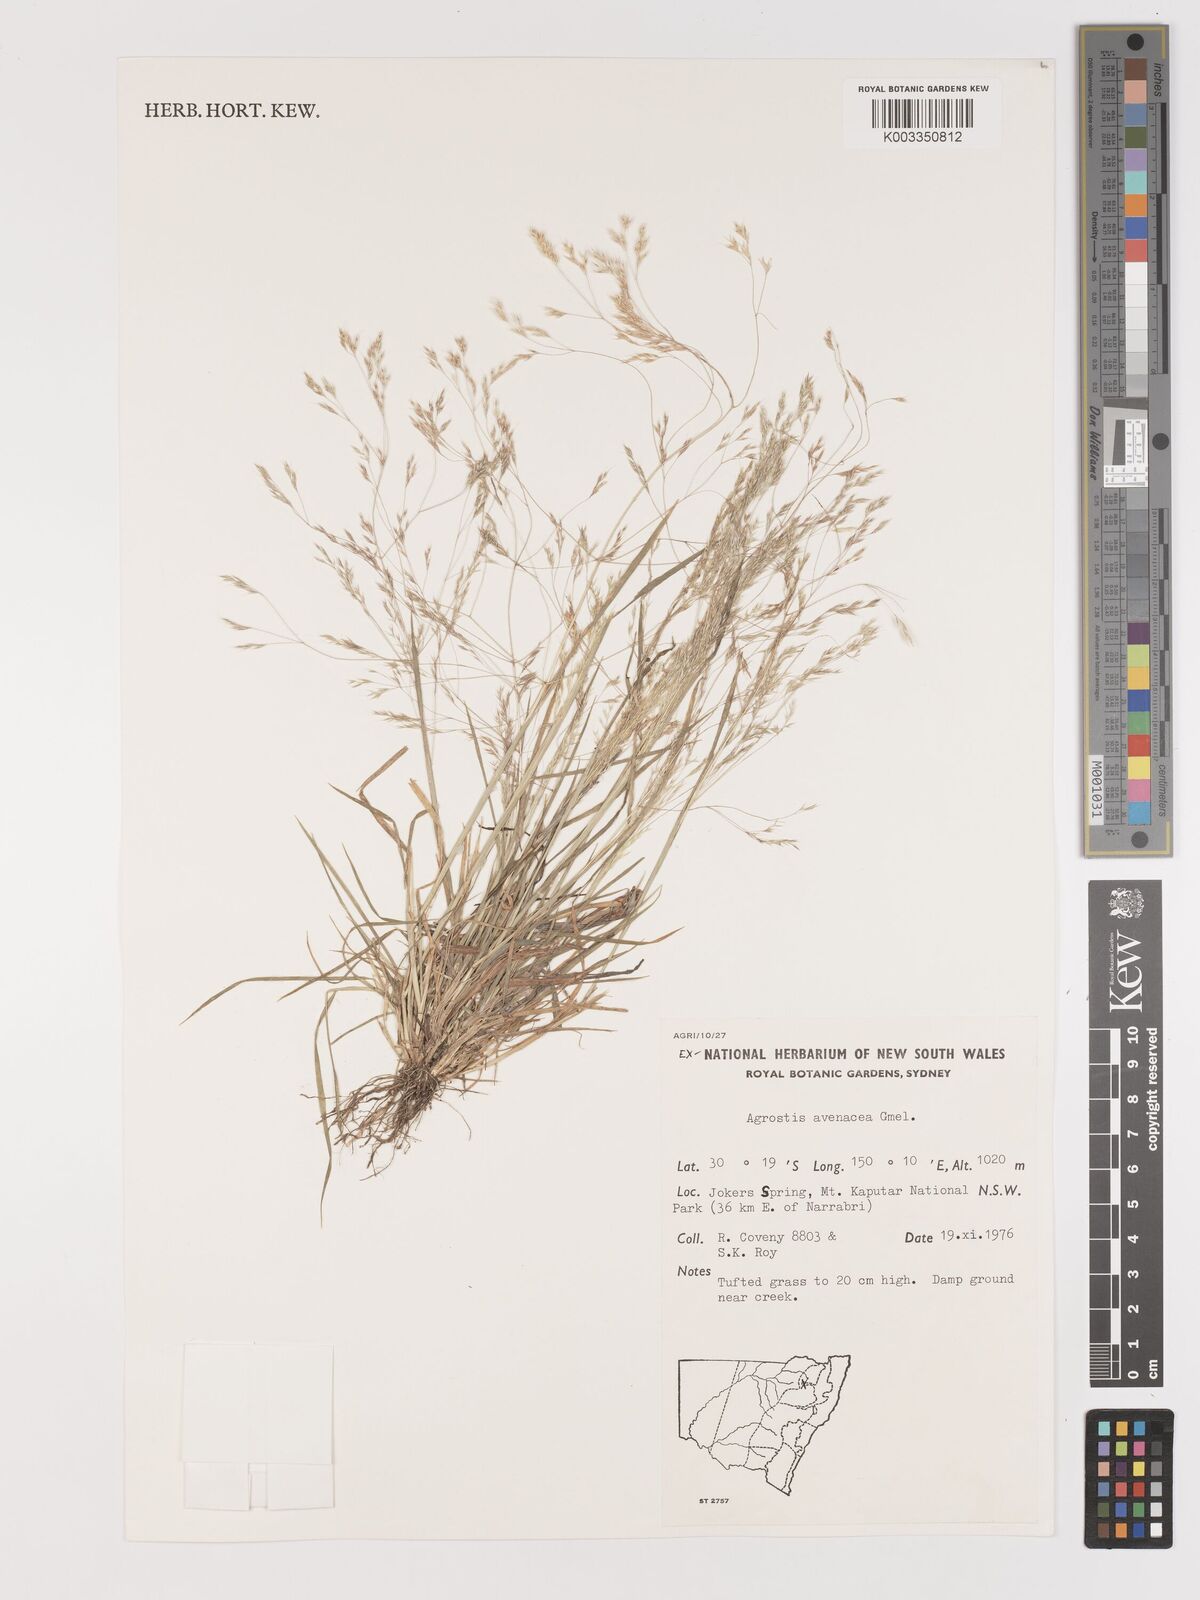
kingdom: Plantae
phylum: Tracheophyta
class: Liliopsida
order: Poales
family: Poaceae
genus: Lachnagrostis
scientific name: Lachnagrostis filiformis
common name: Bentgrass
